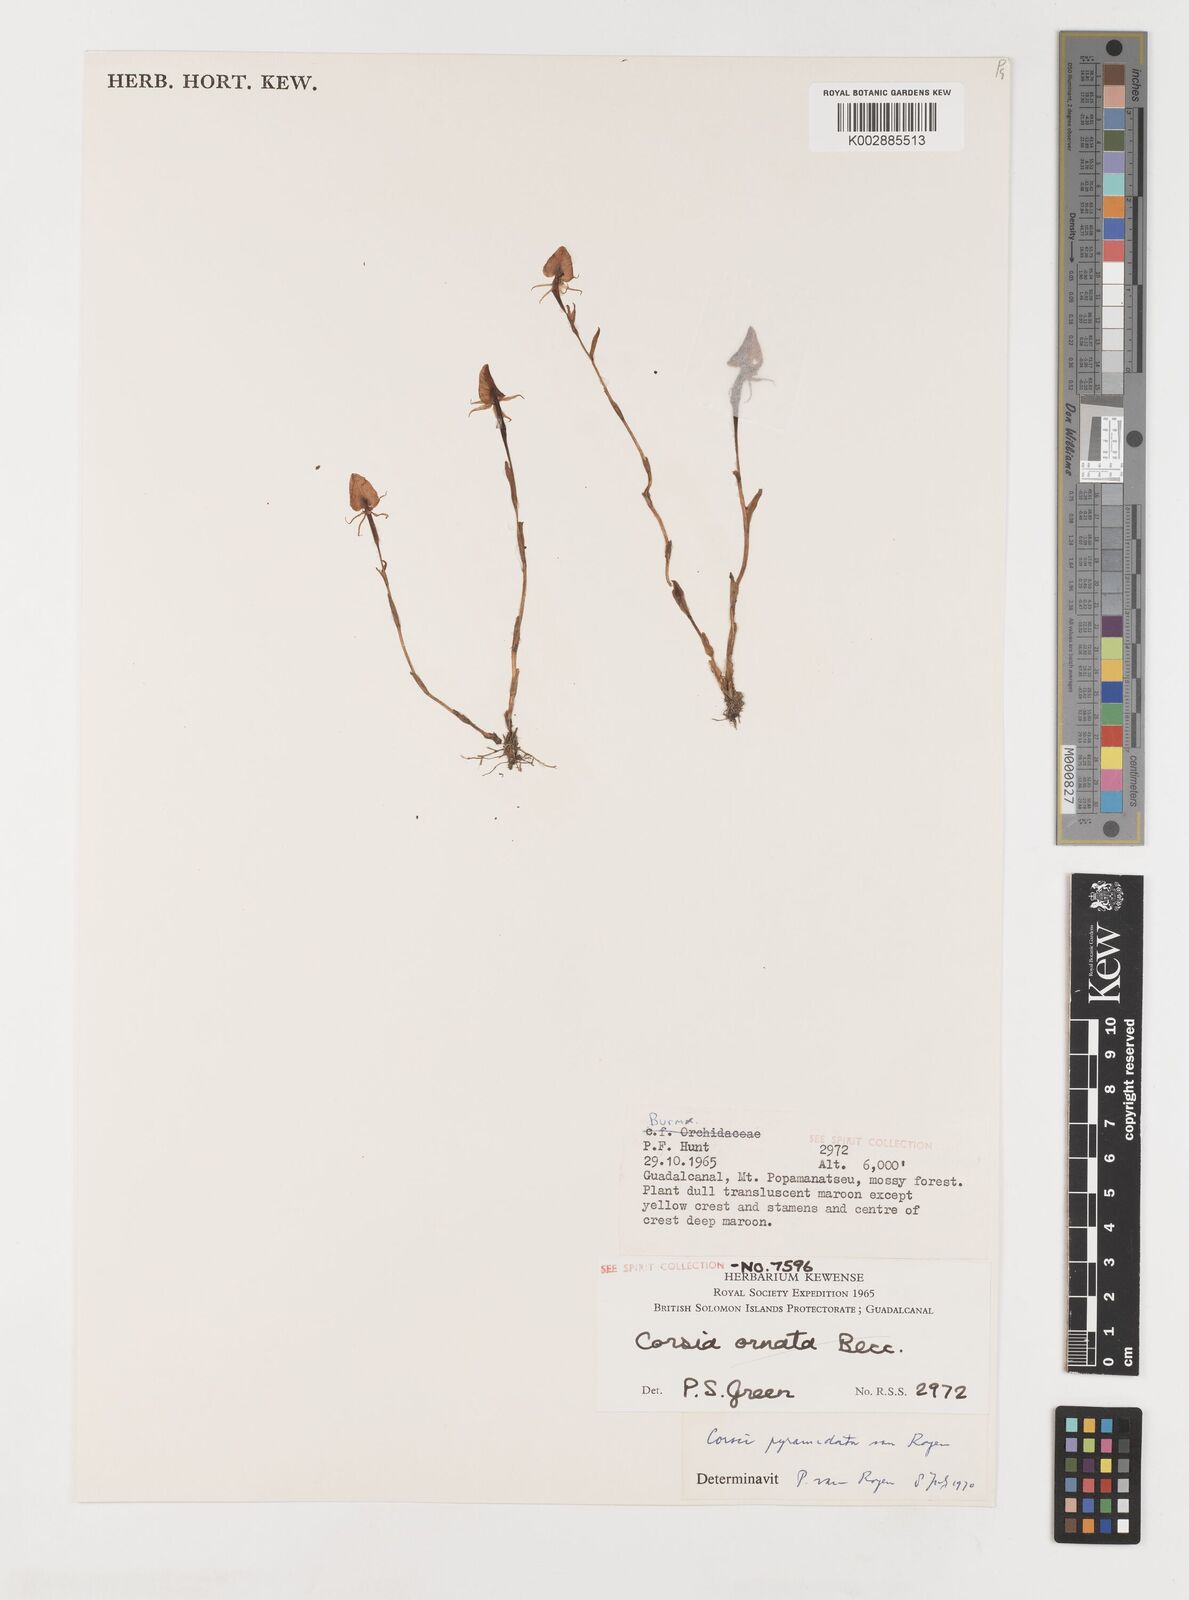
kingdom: Plantae
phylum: Tracheophyta
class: Liliopsida
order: Liliales
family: Corsiaceae
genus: Corsia
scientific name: Corsia pyramidata
